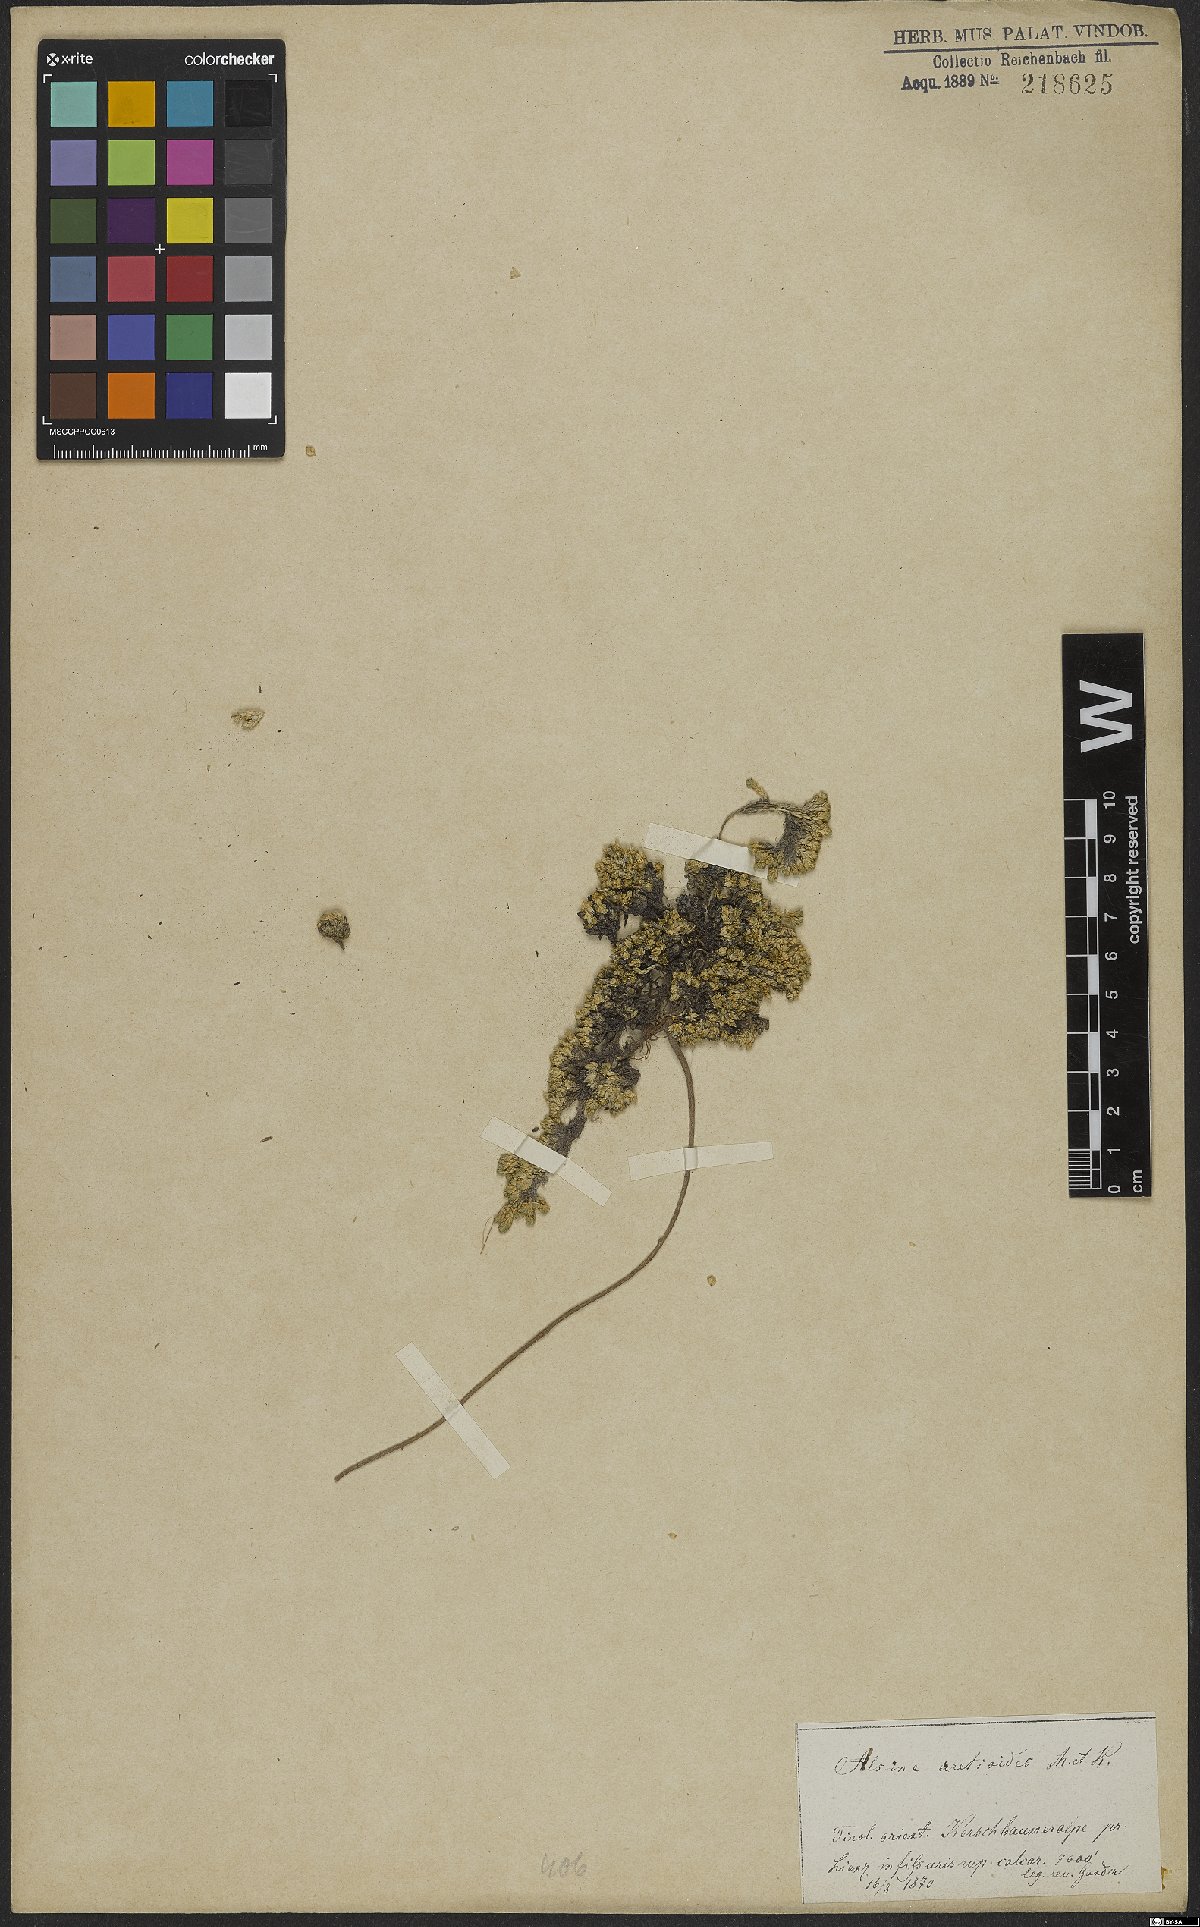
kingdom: Plantae
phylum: Tracheophyta
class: Magnoliopsida
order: Caryophyllales
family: Caryophyllaceae
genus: Facchinia
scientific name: Facchinia cherlerioides
